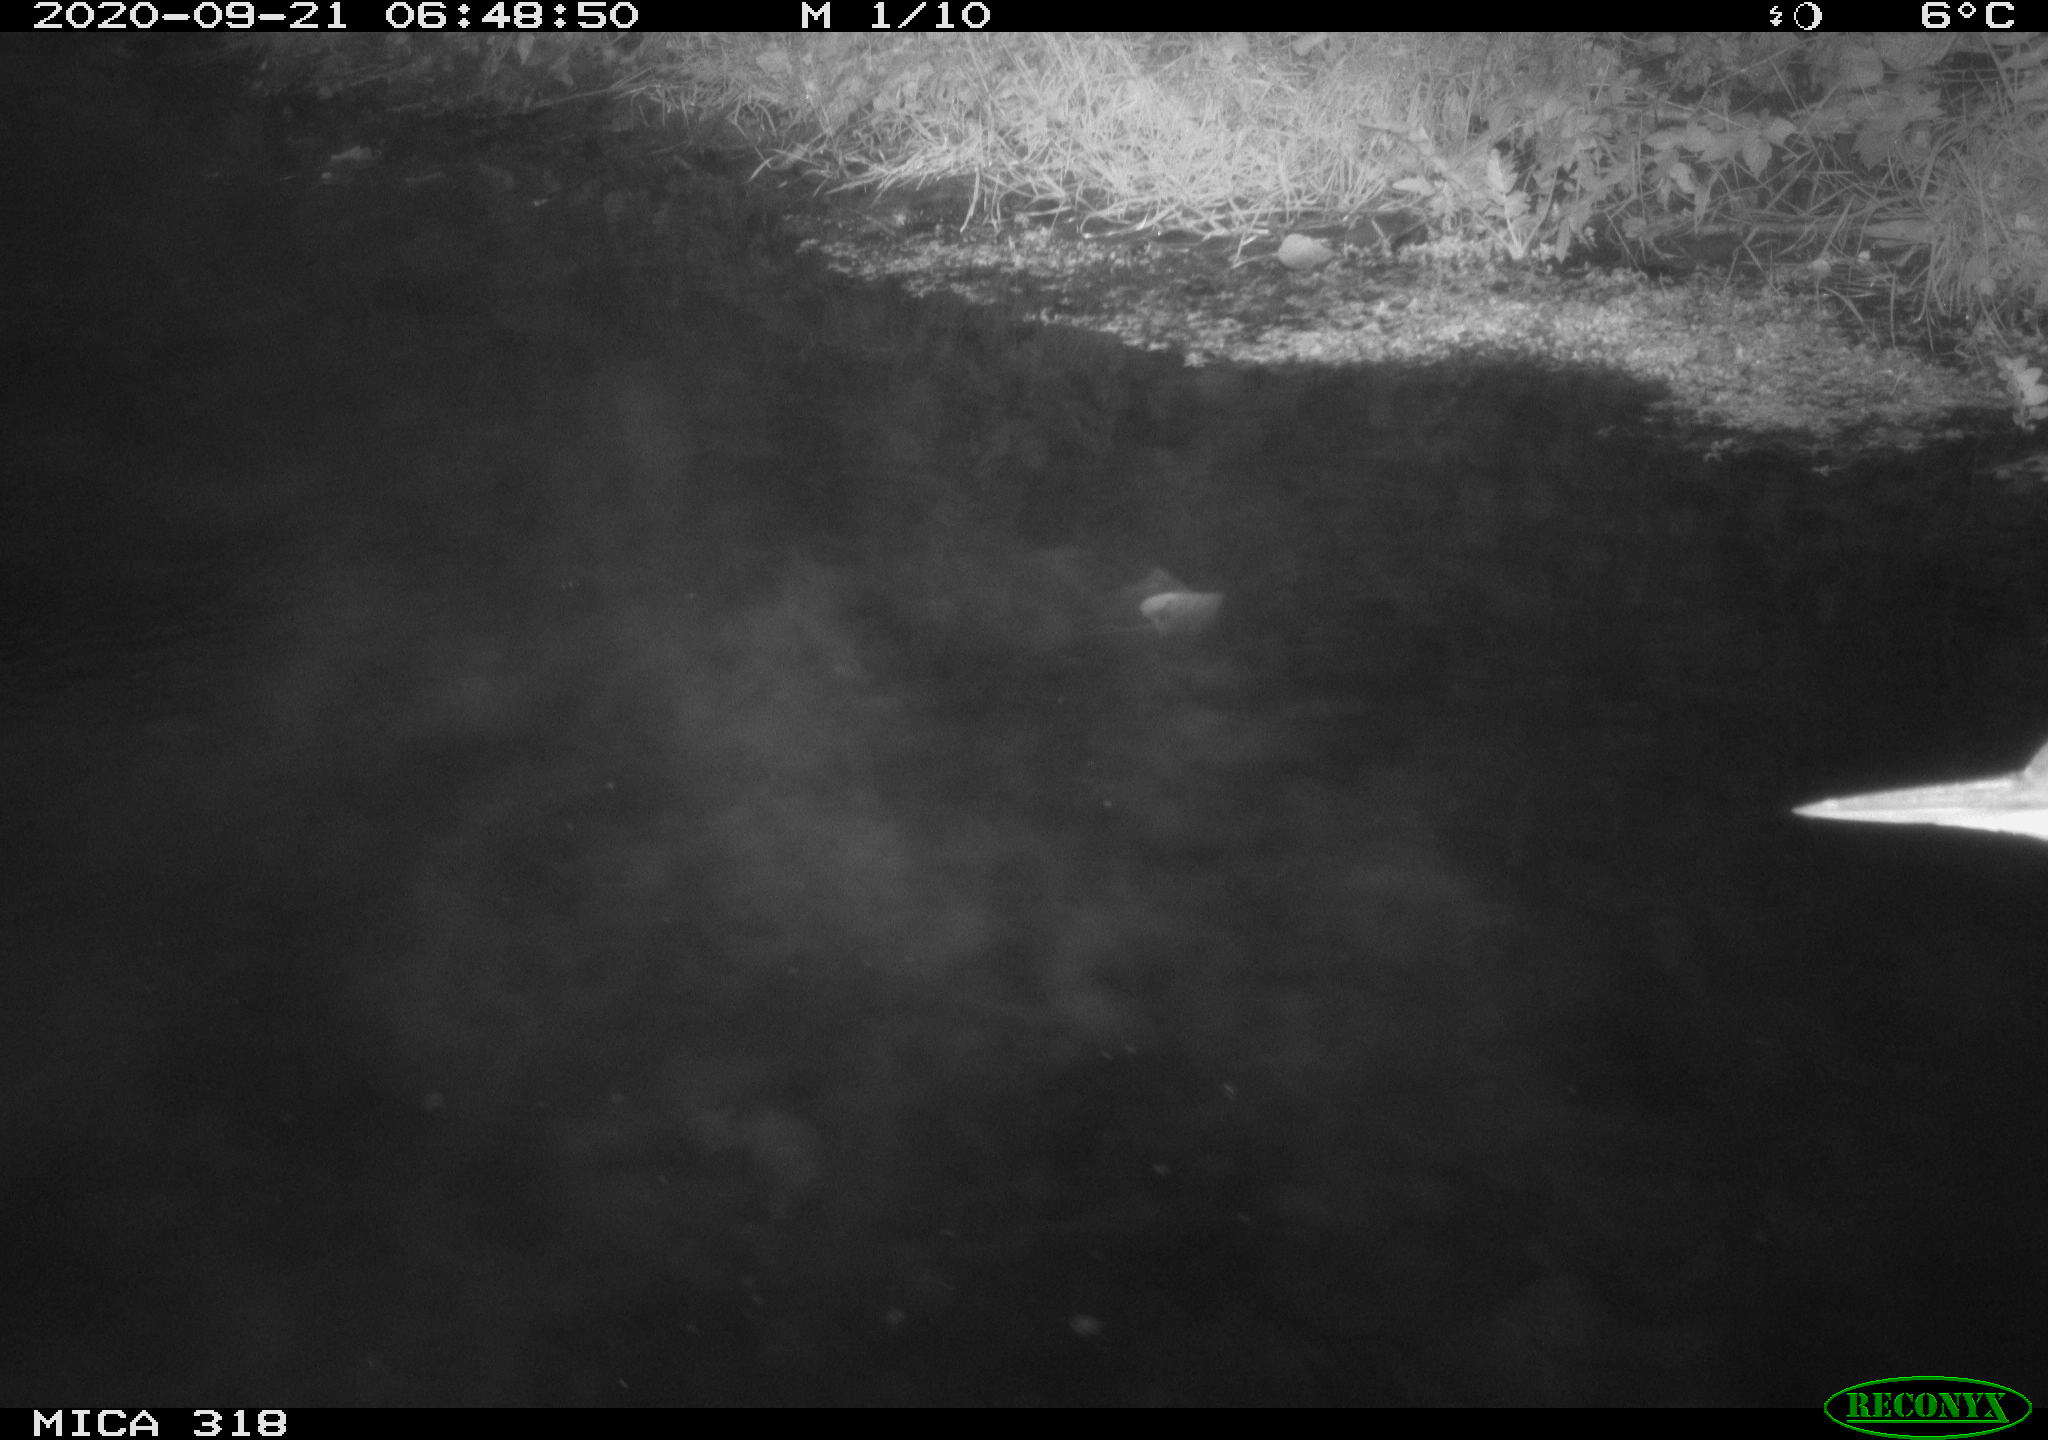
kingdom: Animalia
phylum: Chordata
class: Aves
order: Pelecaniformes
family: Ardeidae
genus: Ardea
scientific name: Ardea
